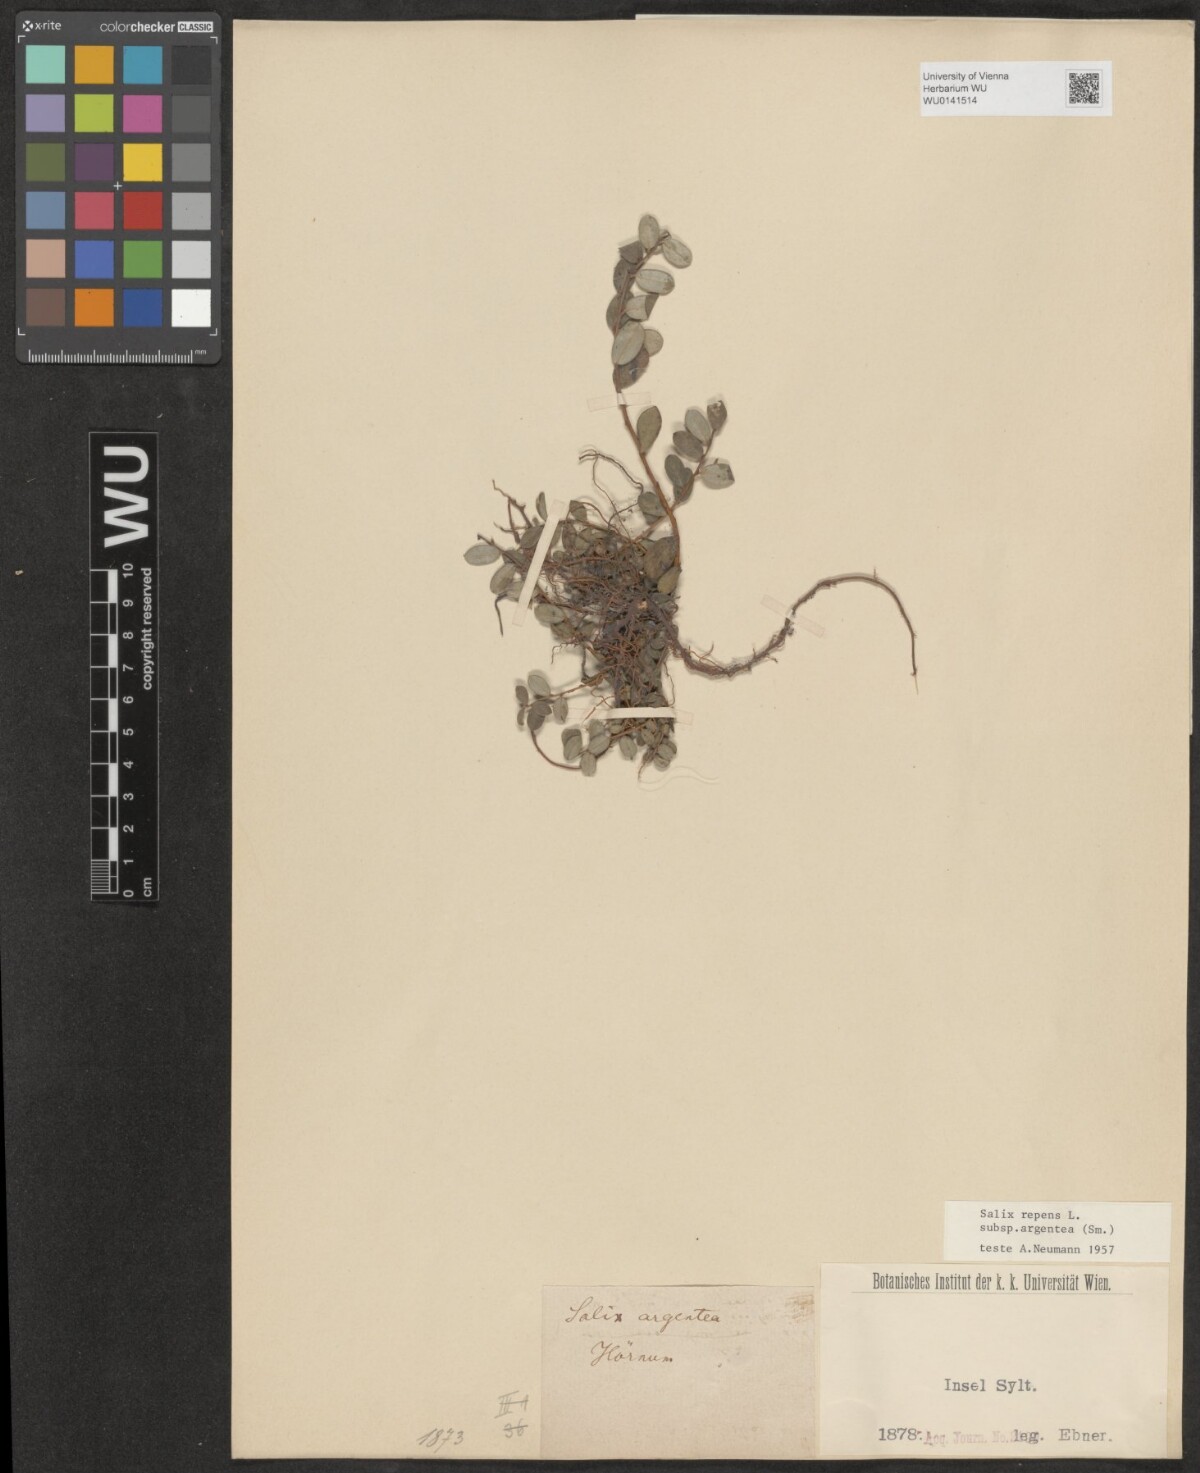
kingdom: Plantae
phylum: Tracheophyta
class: Magnoliopsida
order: Malpighiales
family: Salicaceae
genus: Salix
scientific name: Salix repens
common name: Creeping willow
